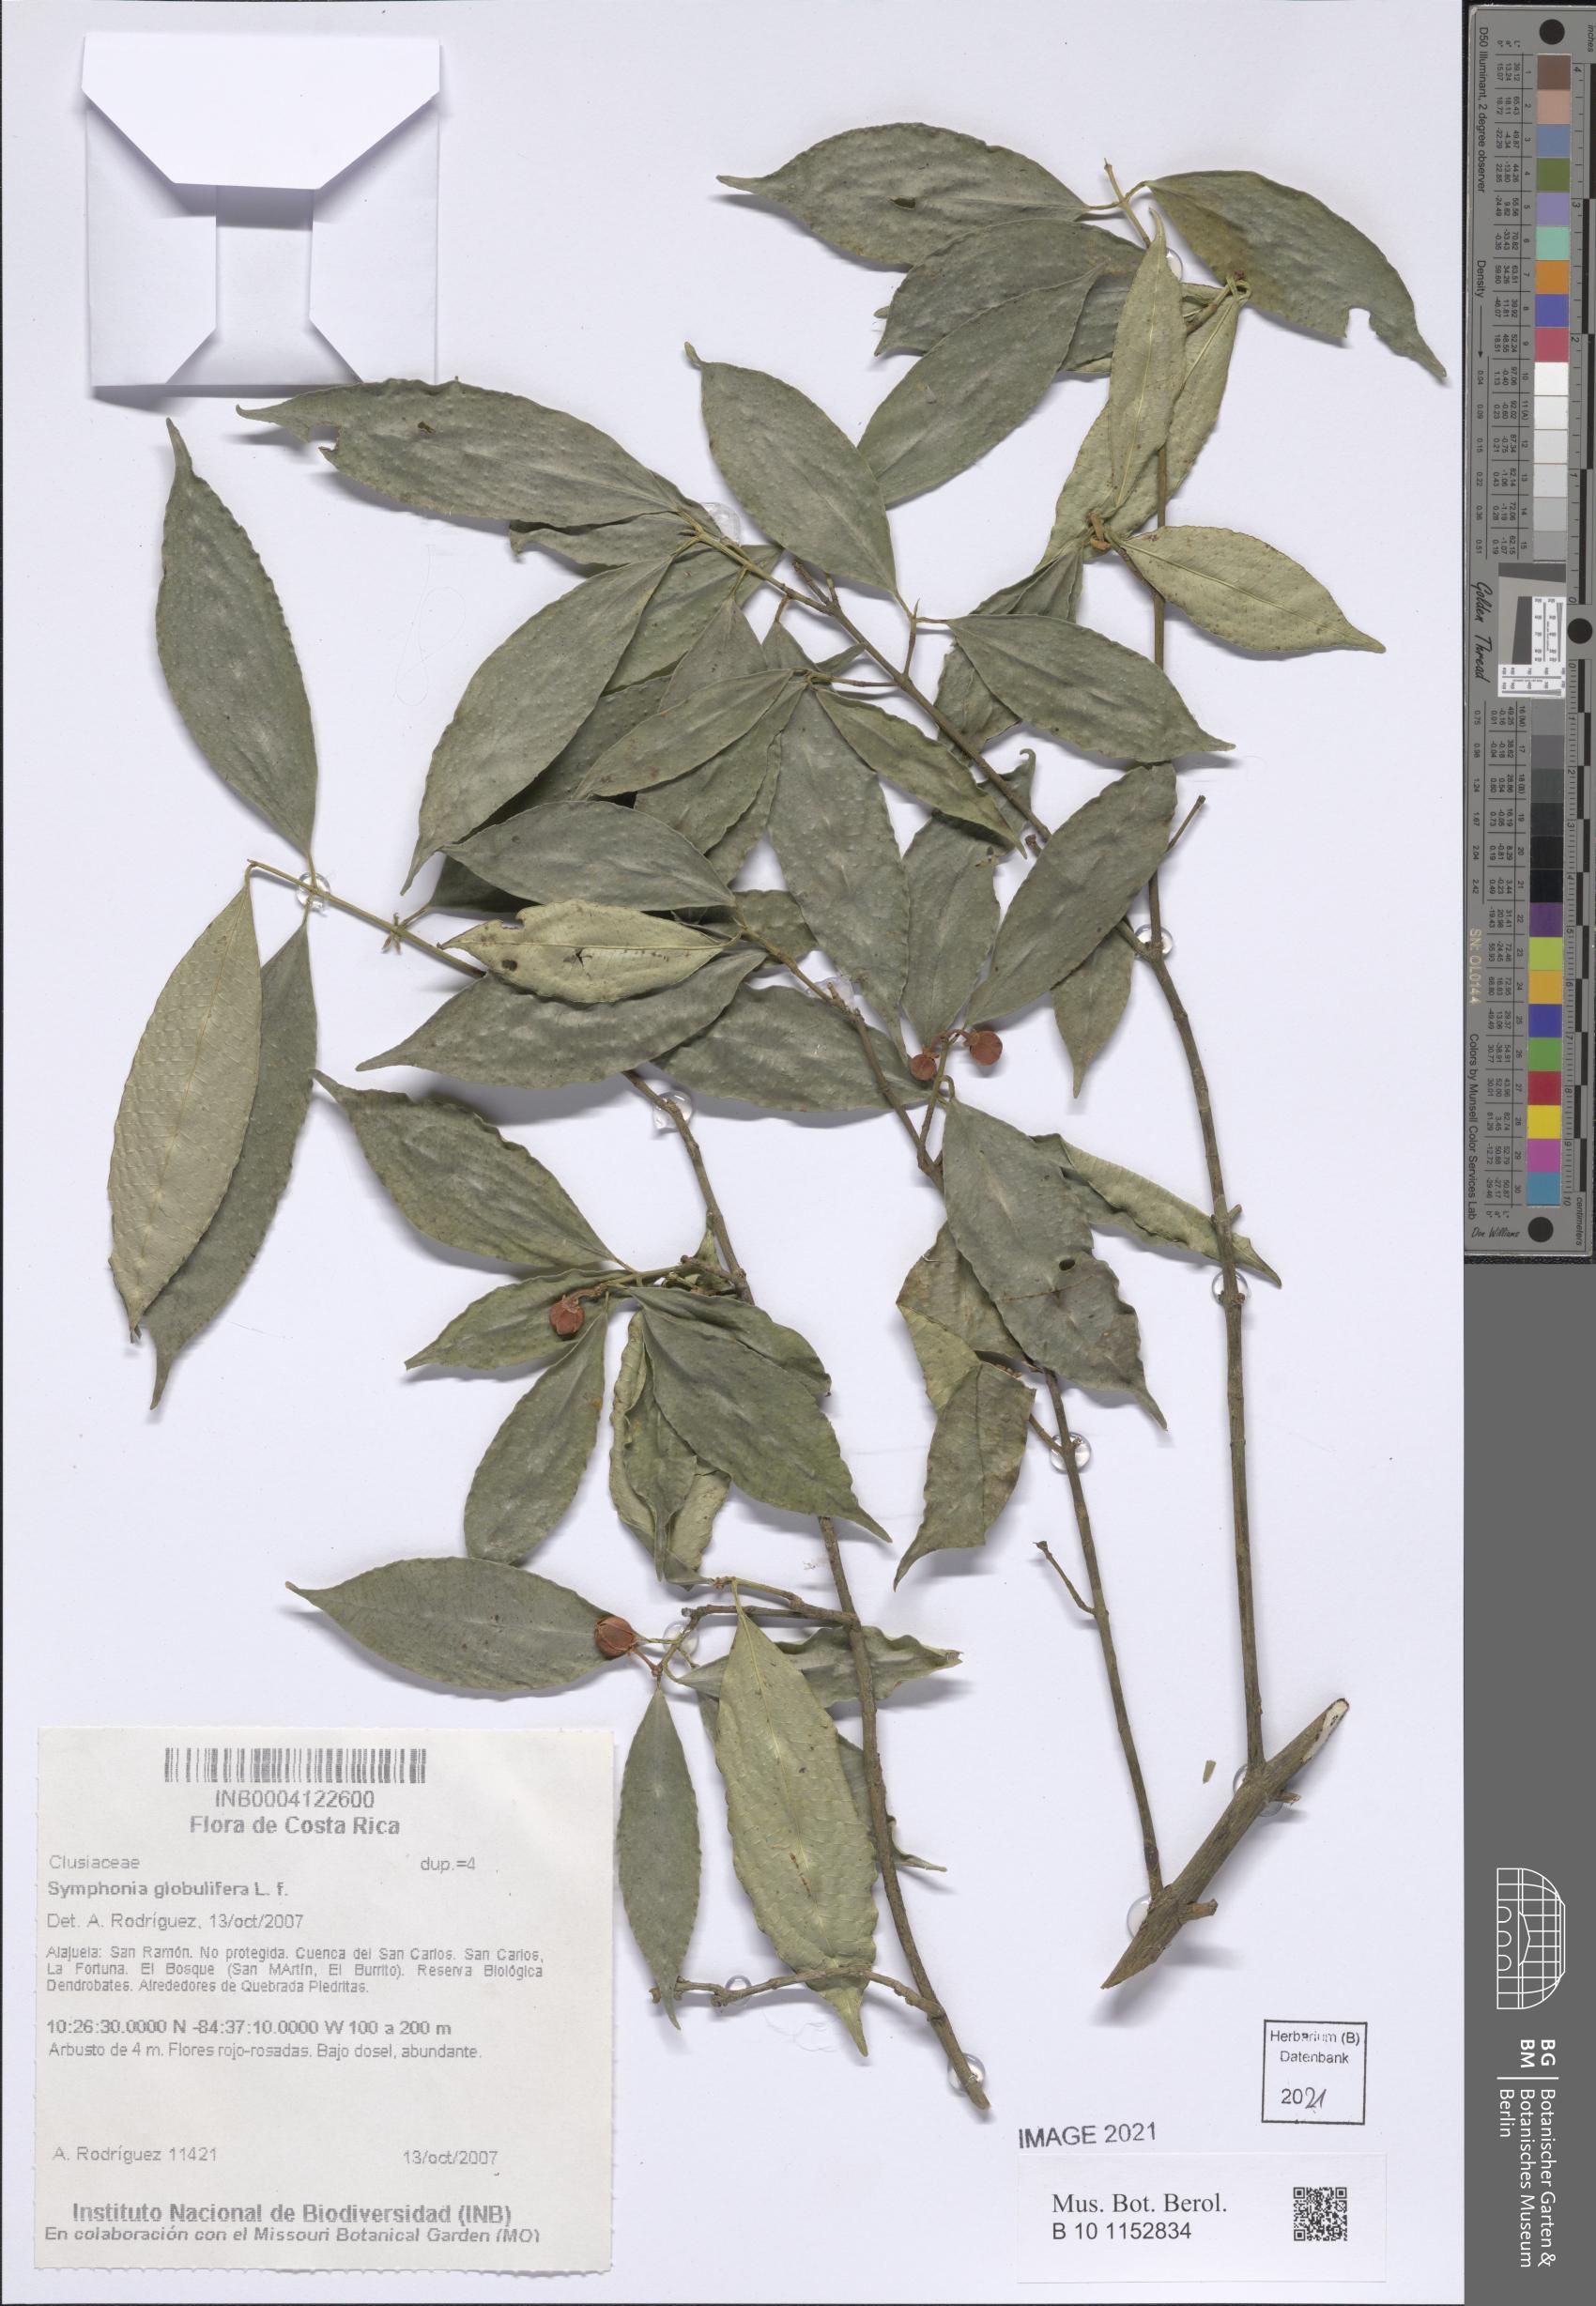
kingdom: Plantae
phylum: Tracheophyta
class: Magnoliopsida
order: Malpighiales
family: Clusiaceae
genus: Symphonia
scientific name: Symphonia globulifera
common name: Boarwood
